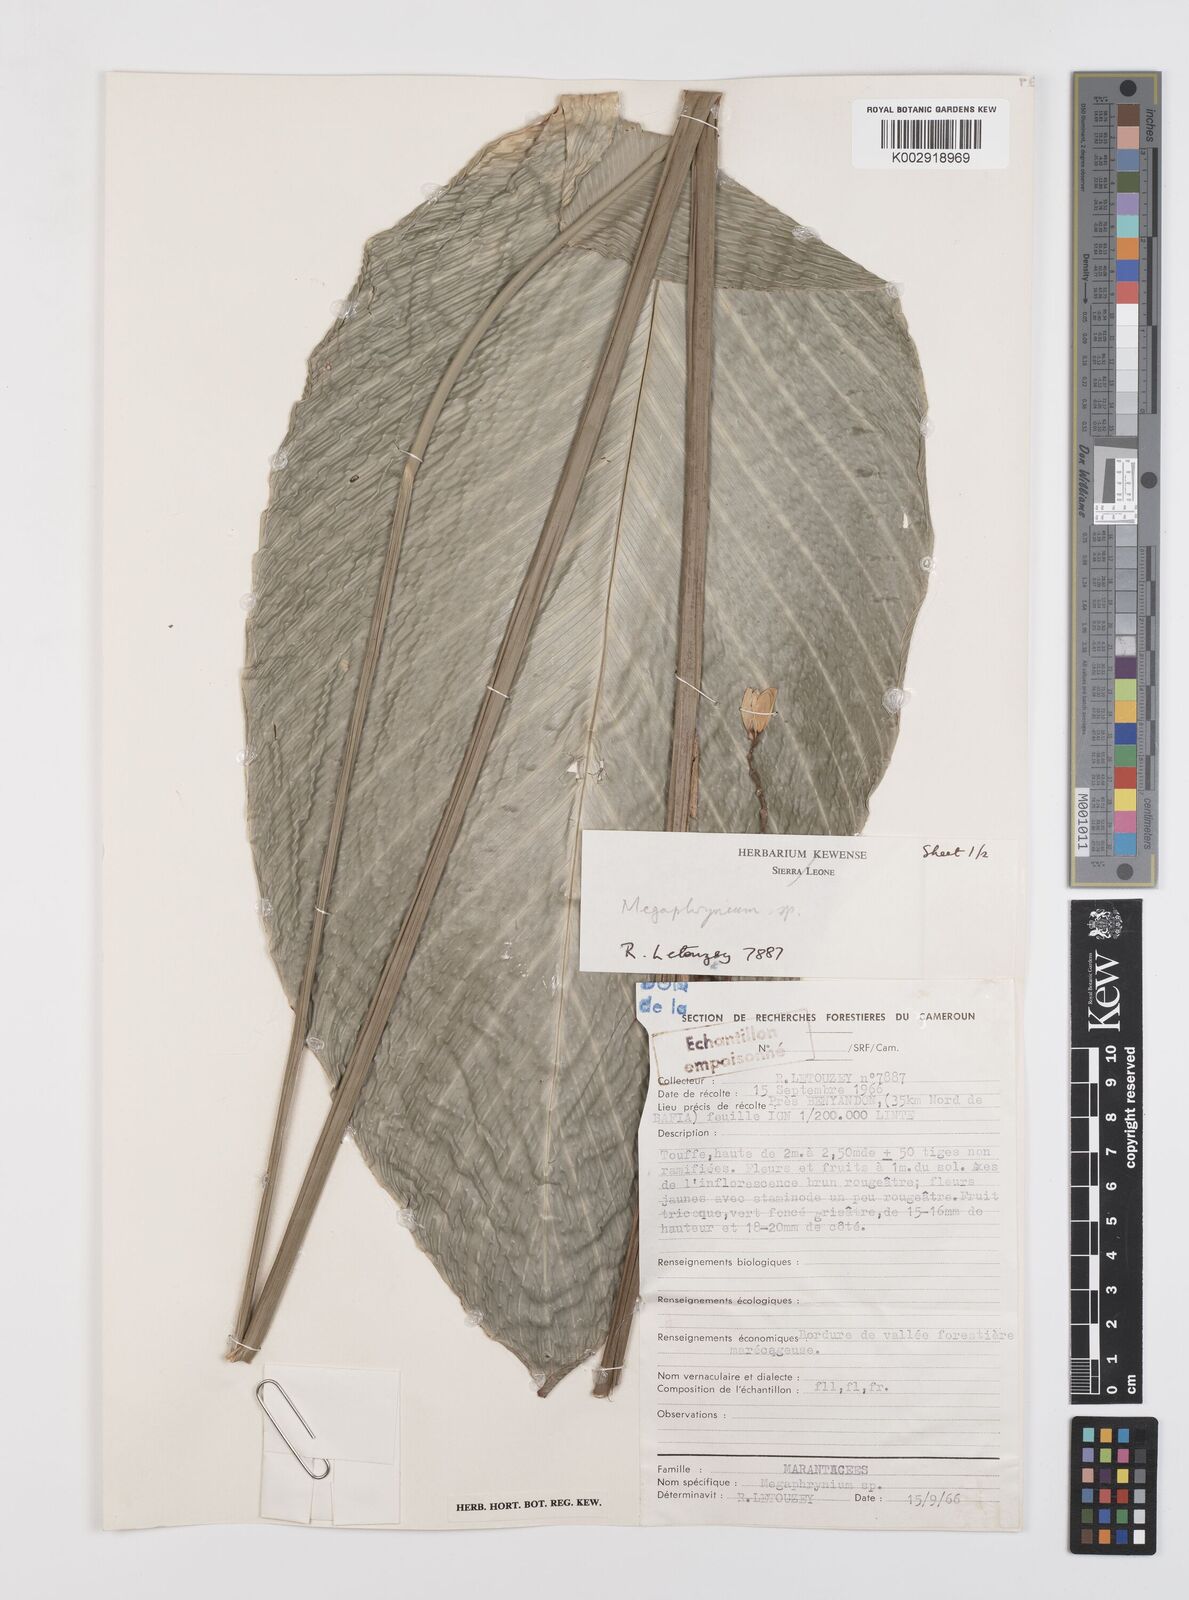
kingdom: Plantae
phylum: Tracheophyta
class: Liliopsida
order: Zingiberales
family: Marantaceae
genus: Megaphrynium
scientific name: Megaphrynium
